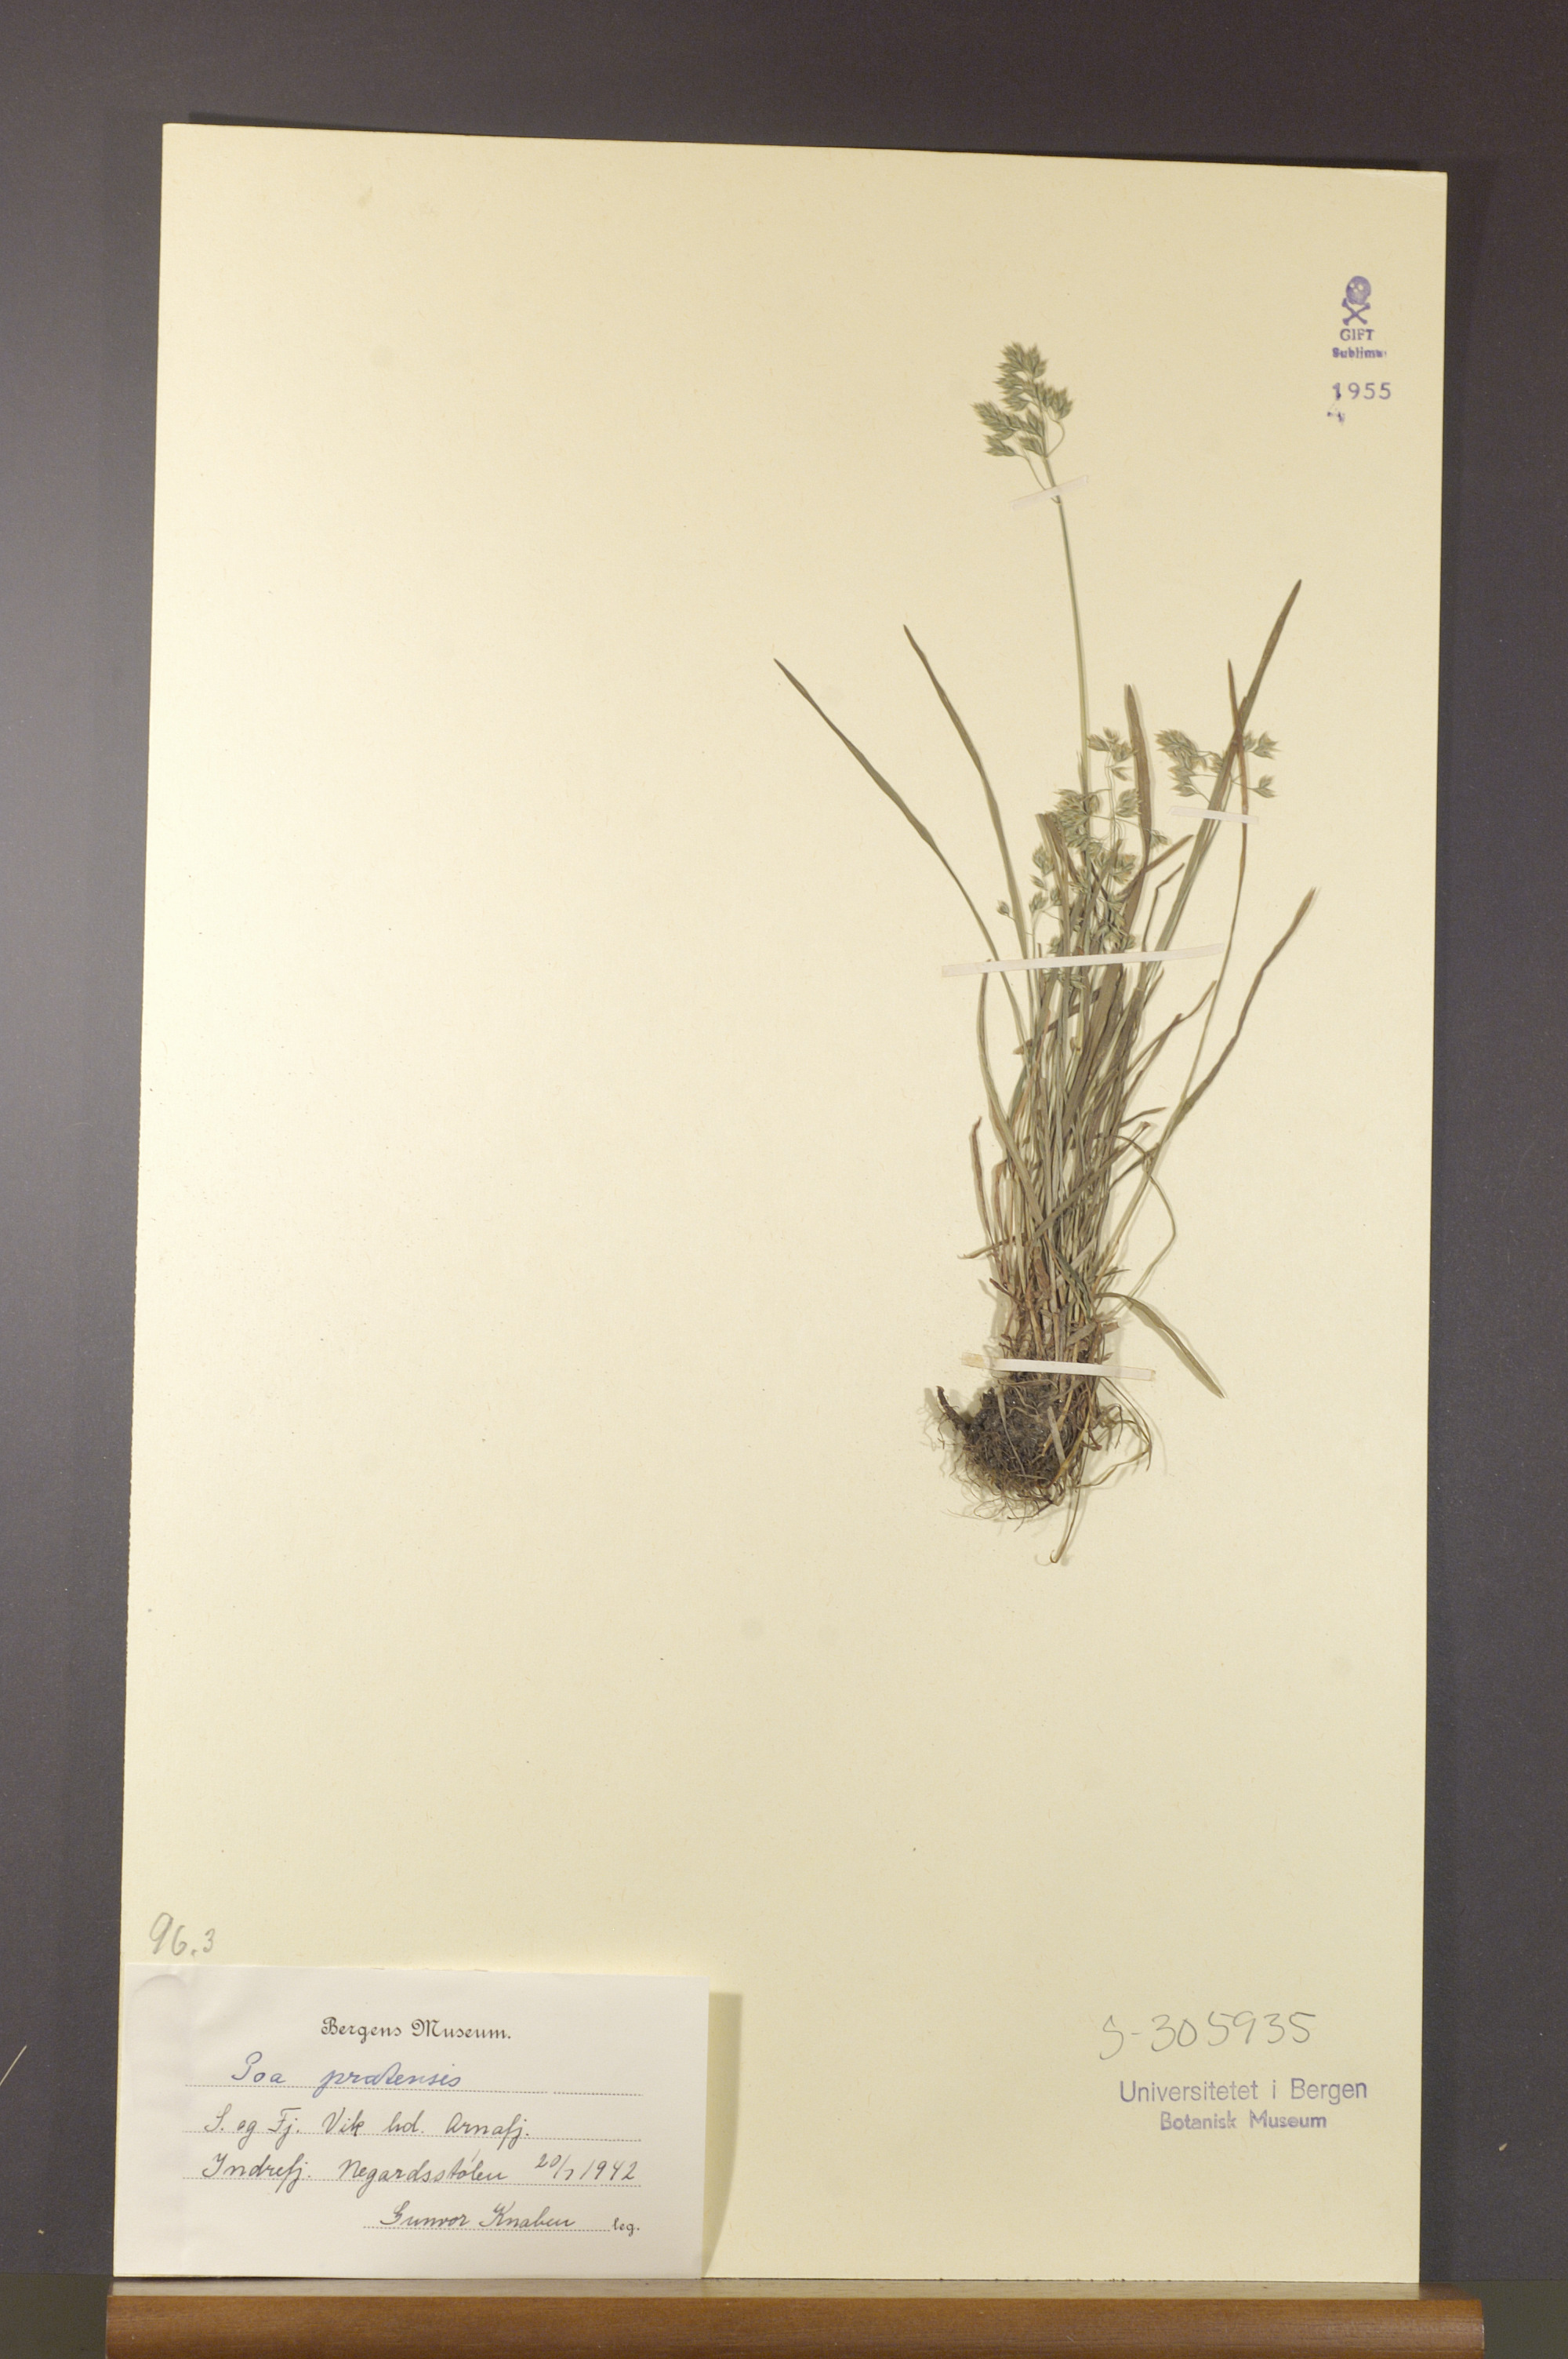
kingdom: Plantae
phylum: Tracheophyta
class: Liliopsida
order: Poales
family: Poaceae
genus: Poa
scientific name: Poa pratensis
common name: Kentucky bluegrass
